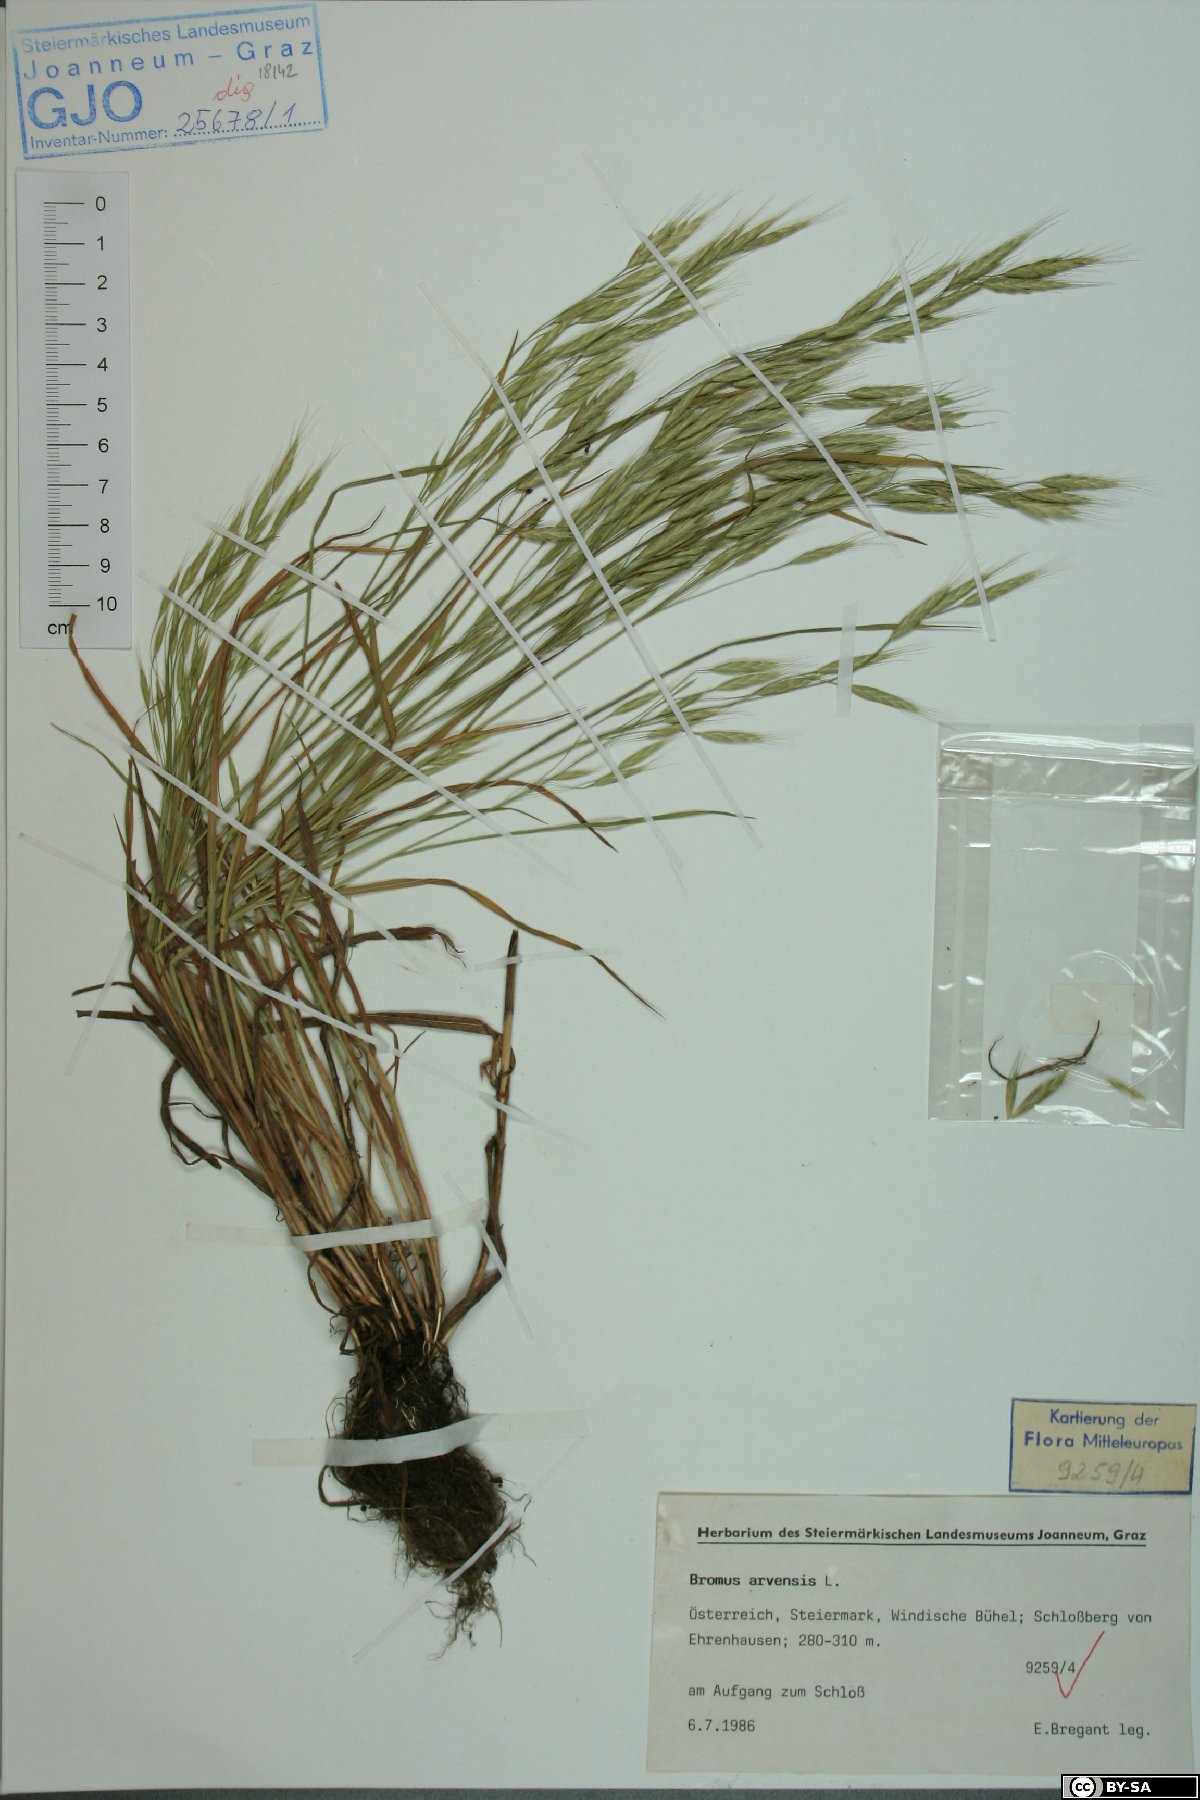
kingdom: Plantae
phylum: Tracheophyta
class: Liliopsida
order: Poales
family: Poaceae
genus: Bromus
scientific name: Bromus arvensis
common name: Field brome
